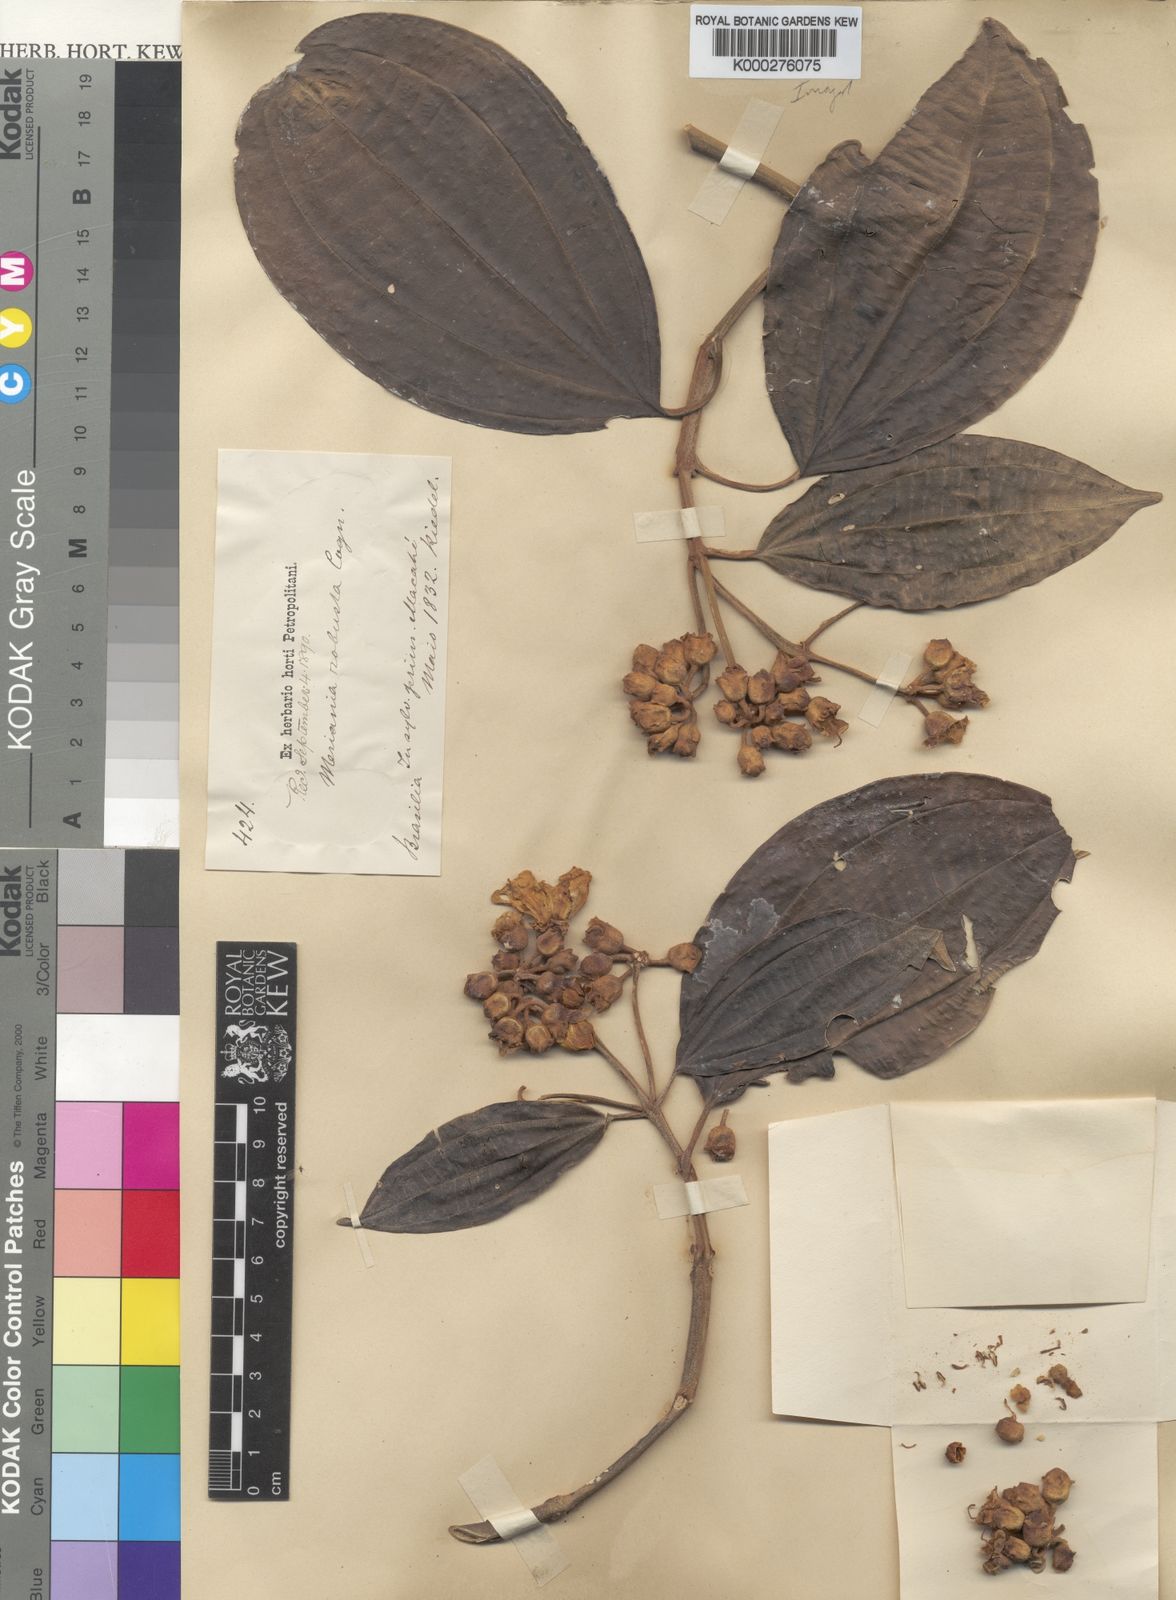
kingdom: Plantae
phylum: Tracheophyta
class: Magnoliopsida
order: Myrtales
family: Melastomataceae
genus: Meriania
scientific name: Meriania robusta
